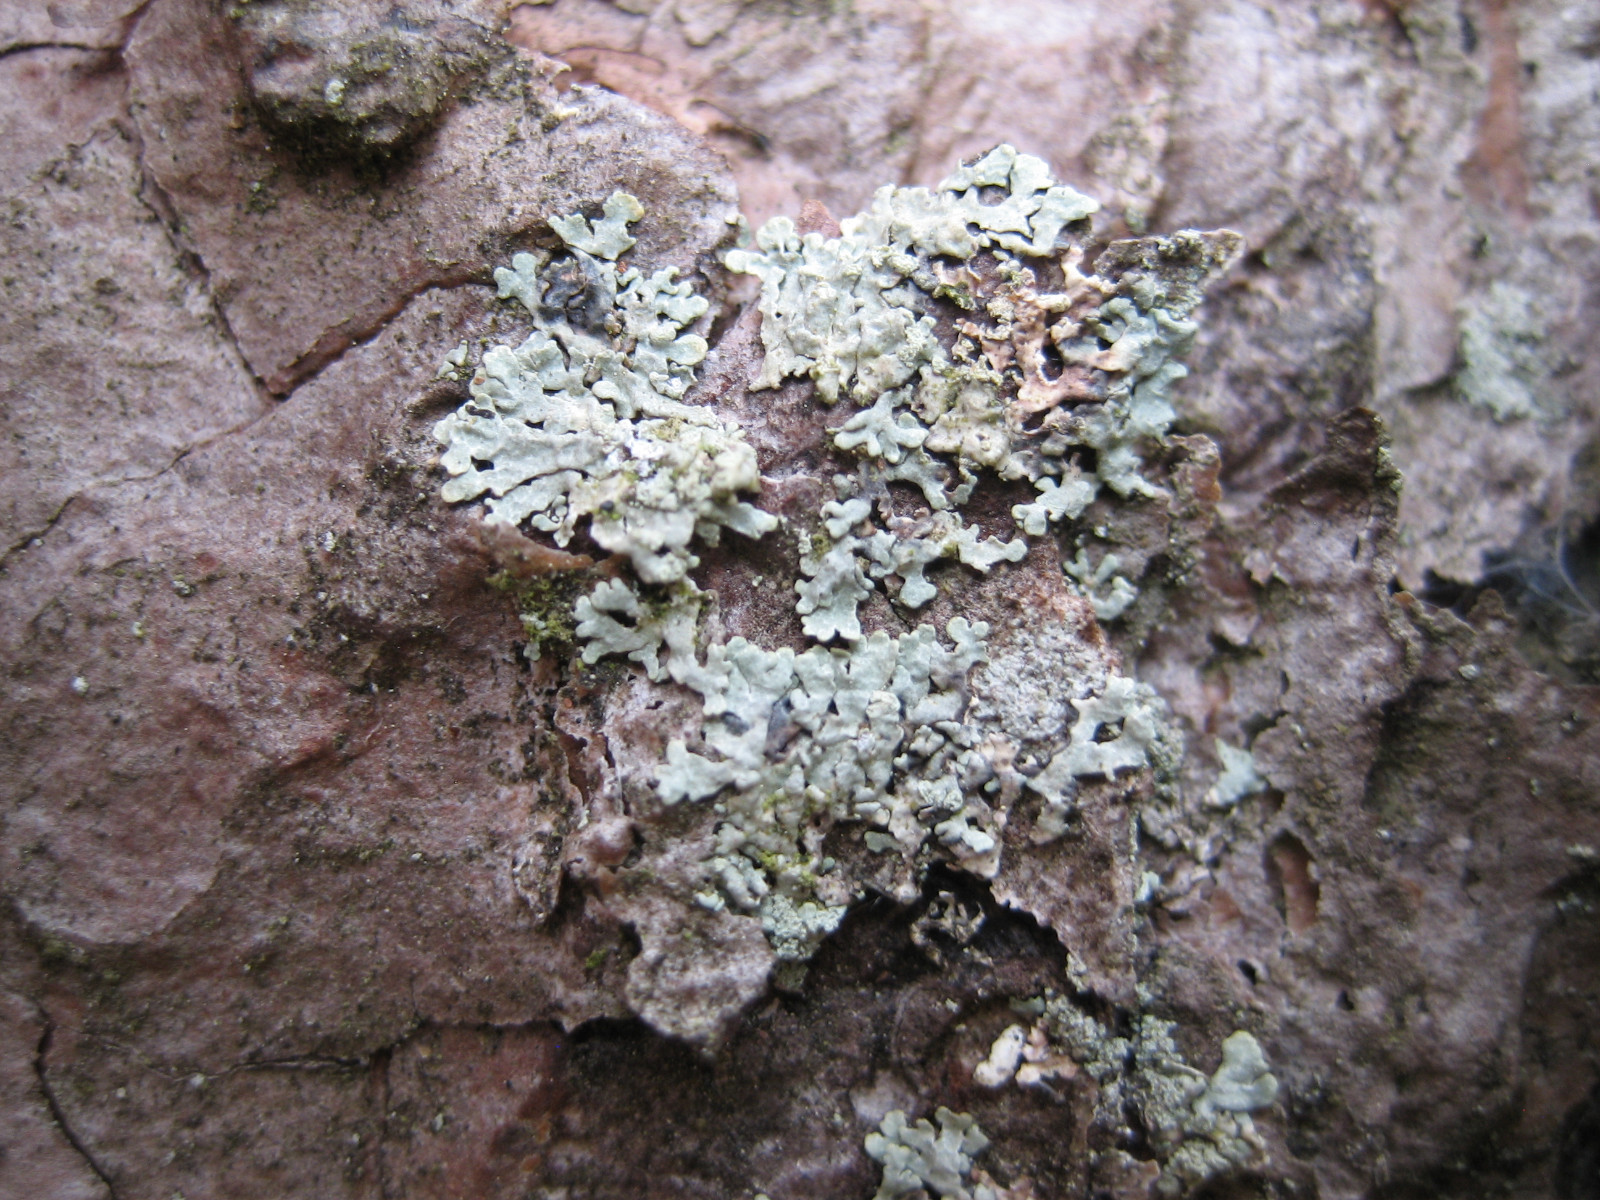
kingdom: Fungi
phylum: Ascomycota
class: Lecanoromycetes
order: Lecanorales
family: Parmeliaceae
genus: Parmeliopsis
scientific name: Parmeliopsis ambigua
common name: gul stolpelav
